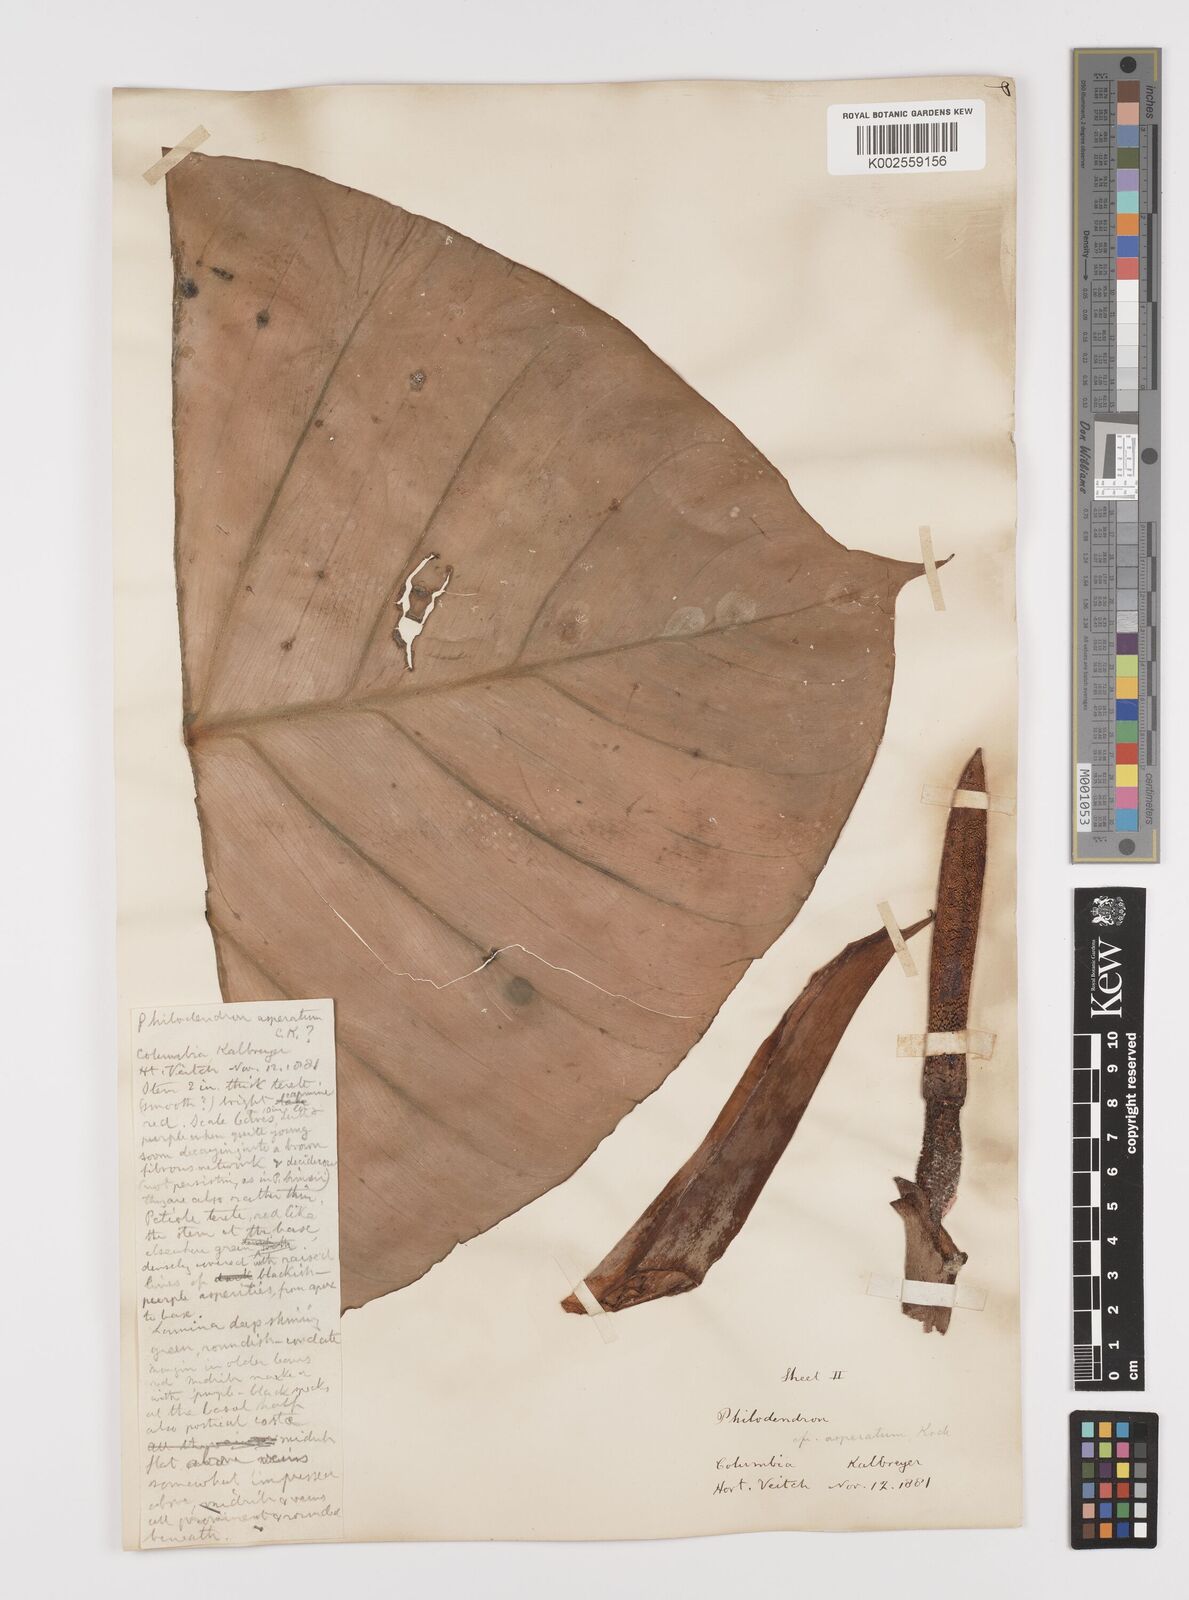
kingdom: Plantae
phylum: Tracheophyta
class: Liliopsida
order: Alismatales
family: Araceae
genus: Philodendron
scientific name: Philodendron ornatum
